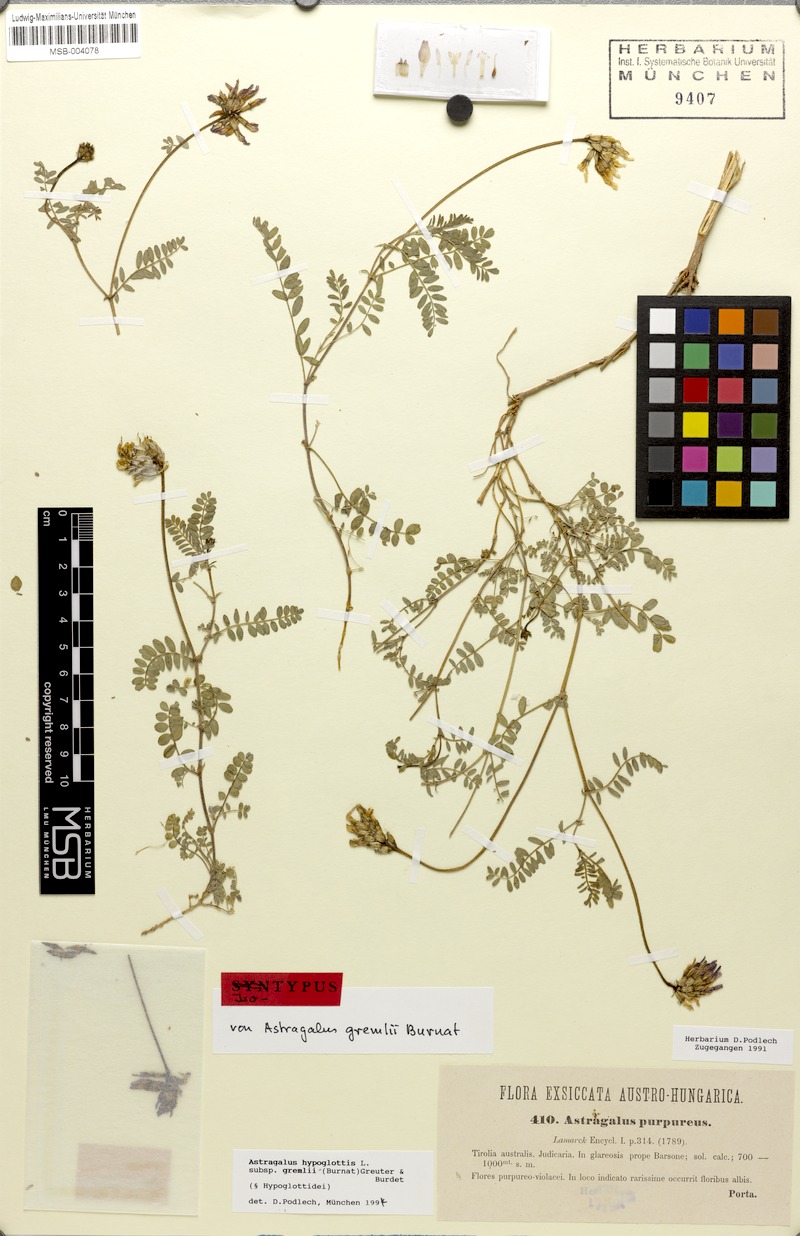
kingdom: Plantae
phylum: Tracheophyta
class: Magnoliopsida
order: Fabales
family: Fabaceae
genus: Astragalus
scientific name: Astragalus hypoglottis
